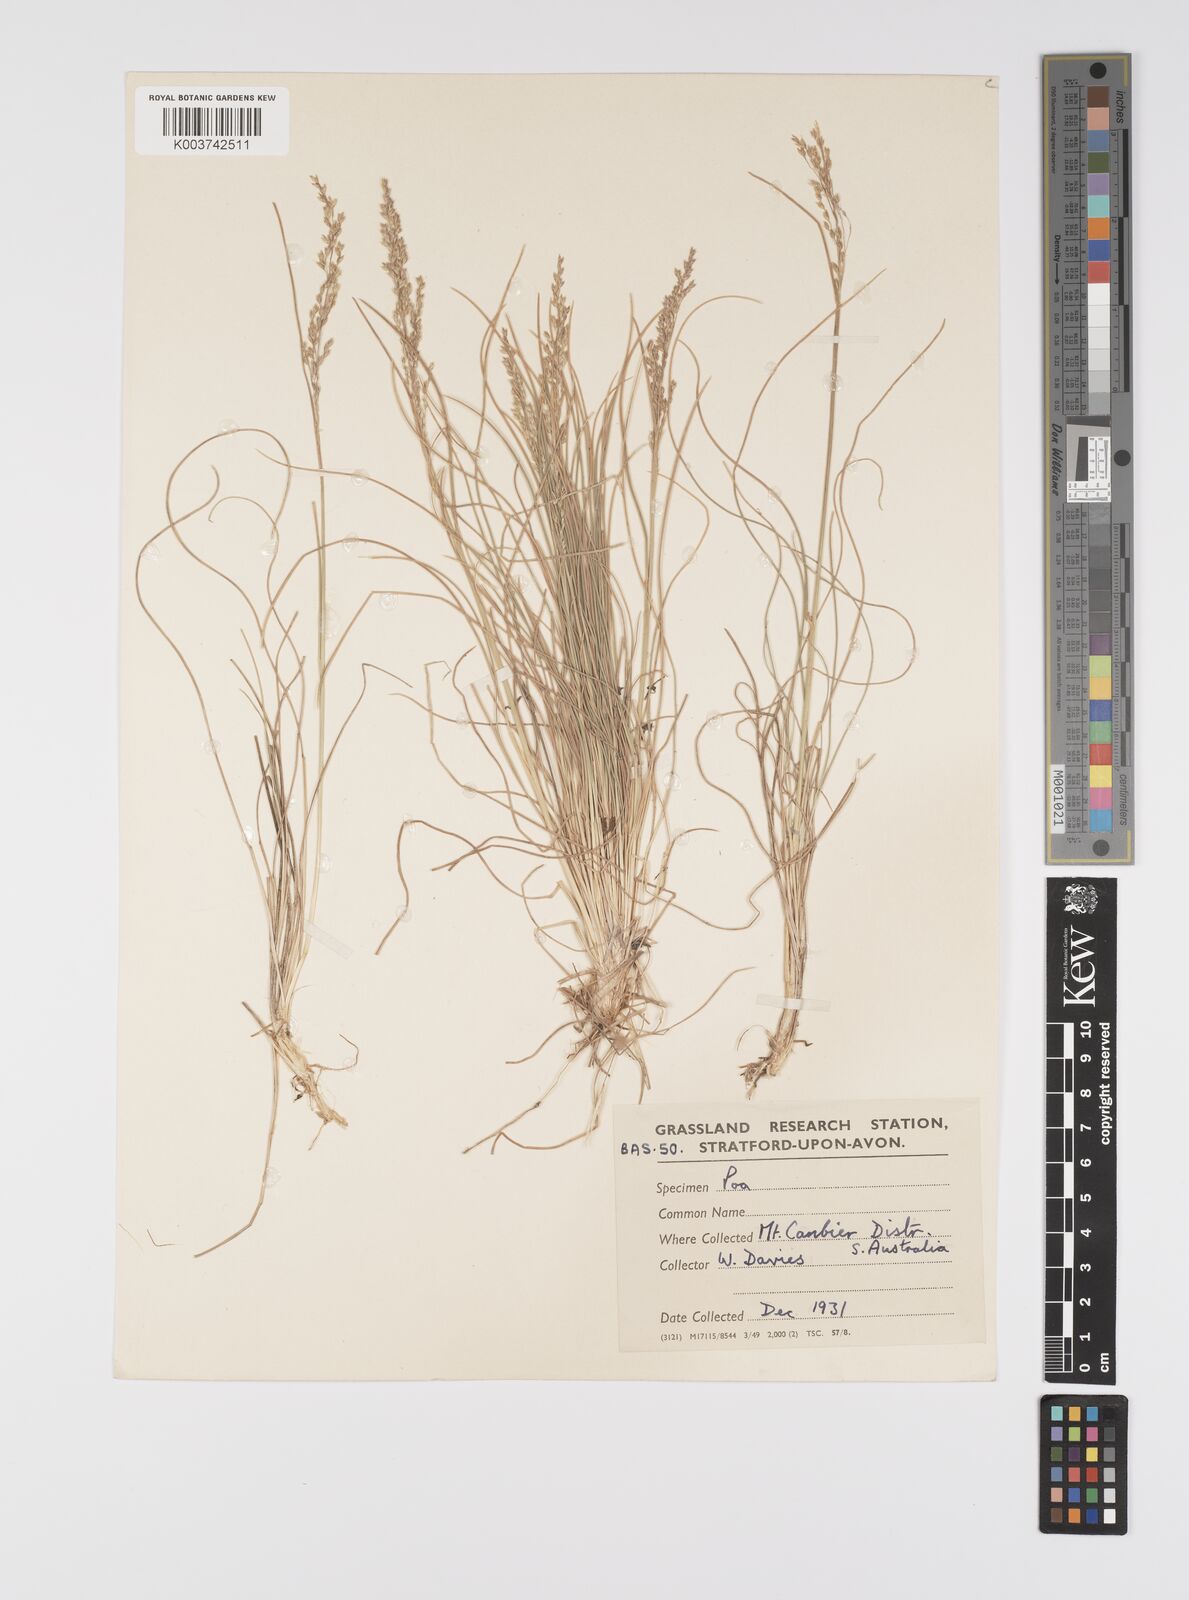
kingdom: Plantae
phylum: Tracheophyta
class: Liliopsida
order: Poales
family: Poaceae
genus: Poa
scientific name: Poa
